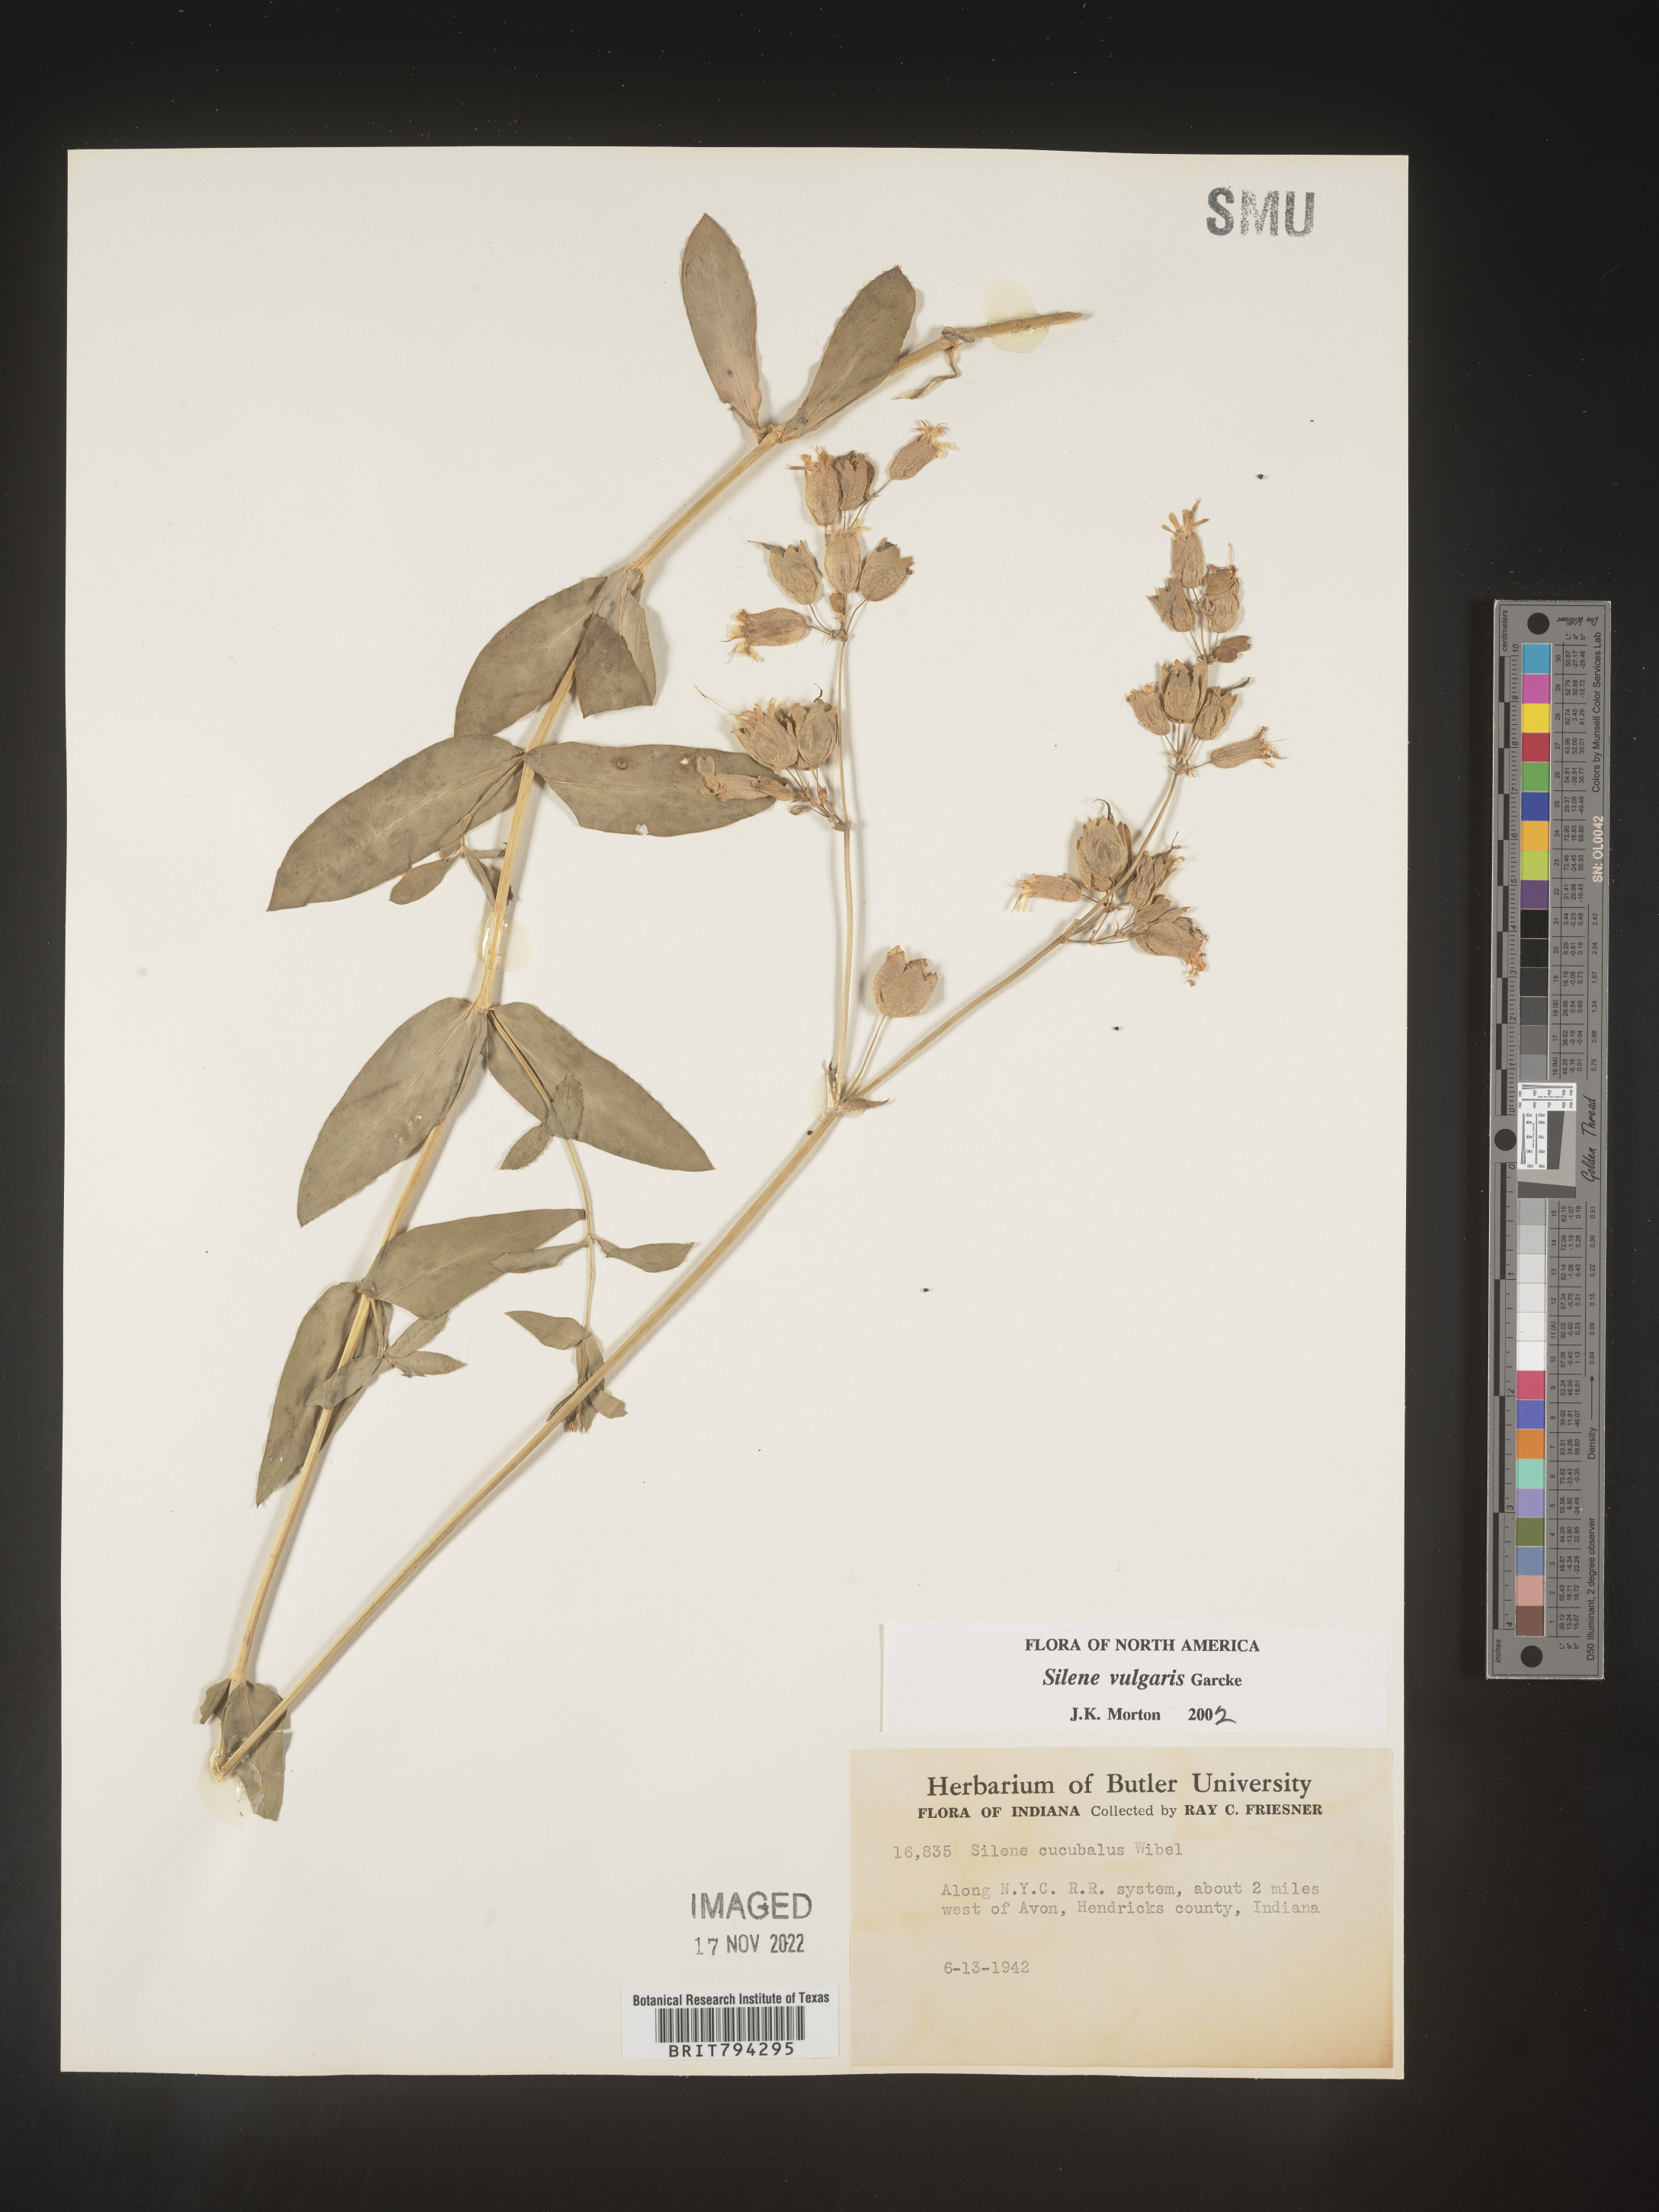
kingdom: Plantae
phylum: Tracheophyta
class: Magnoliopsida
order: Caryophyllales
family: Caryophyllaceae
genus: Silene
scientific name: Silene vulgaris
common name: Bladder campion
